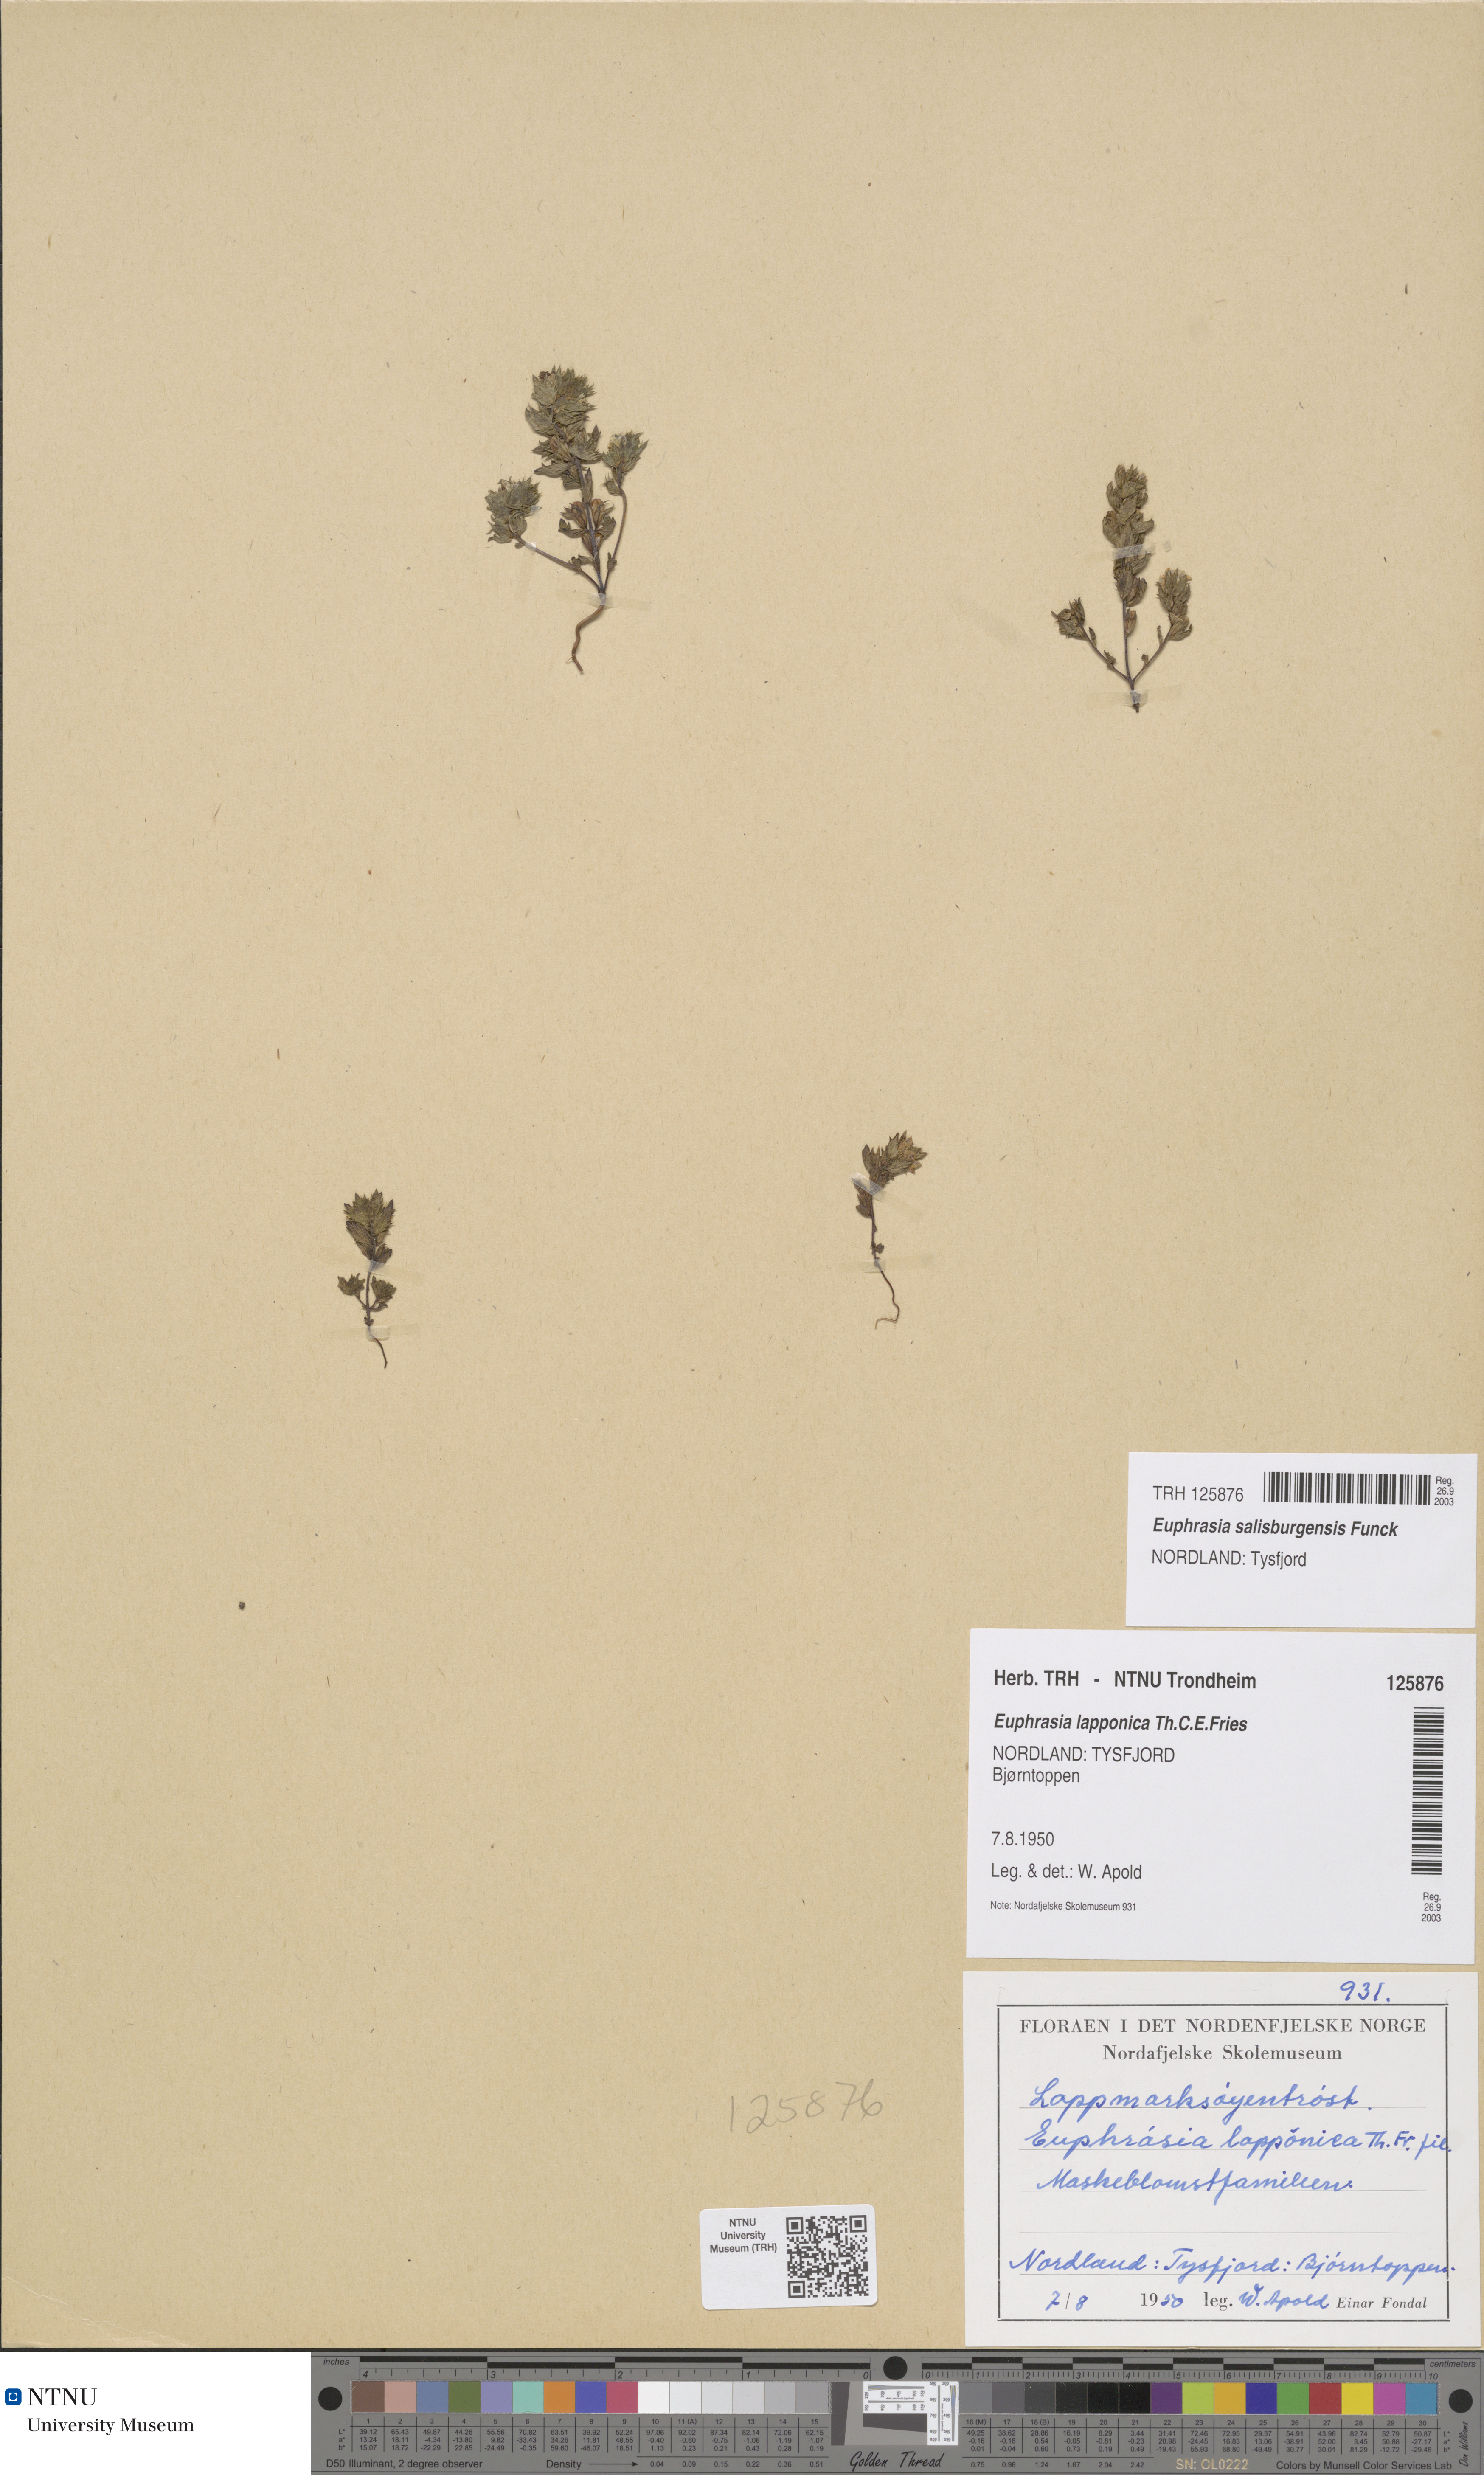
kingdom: Plantae
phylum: Tracheophyta
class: Magnoliopsida
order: Lamiales
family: Orobanchaceae
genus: Euphrasia
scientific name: Euphrasia salisburgensis
